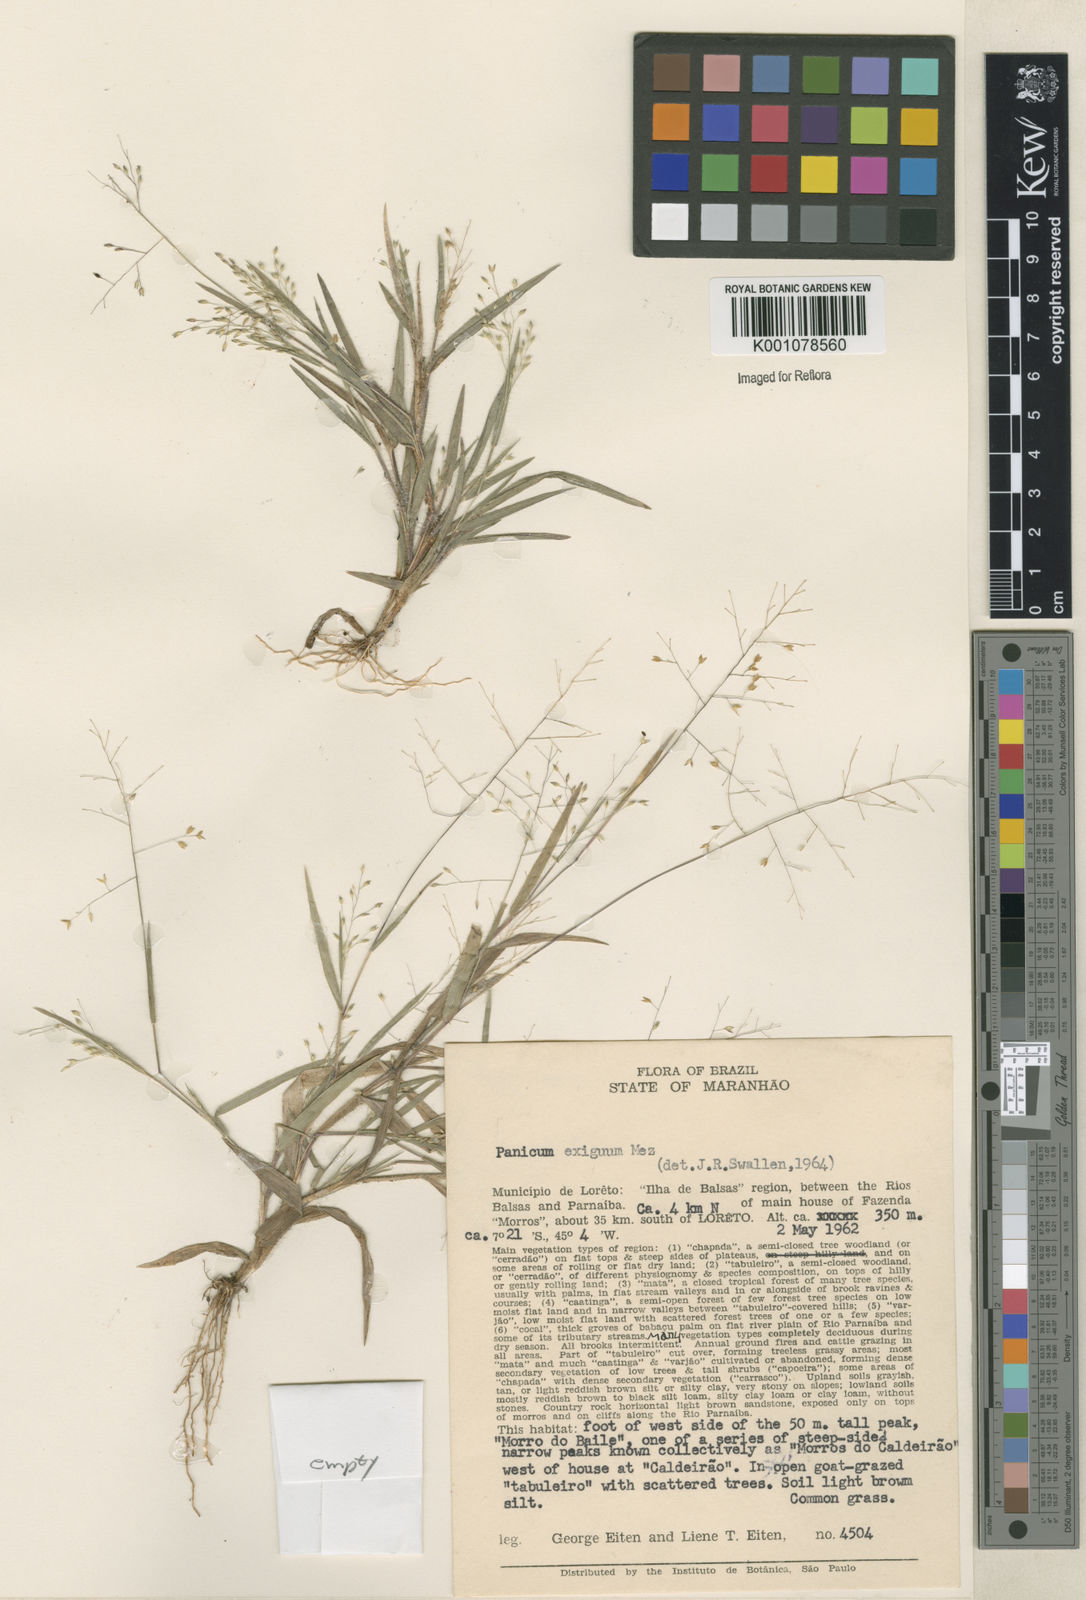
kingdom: Plantae
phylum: Tracheophyta
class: Liliopsida
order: Poales
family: Poaceae
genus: Panicum
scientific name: Panicum exiguum
